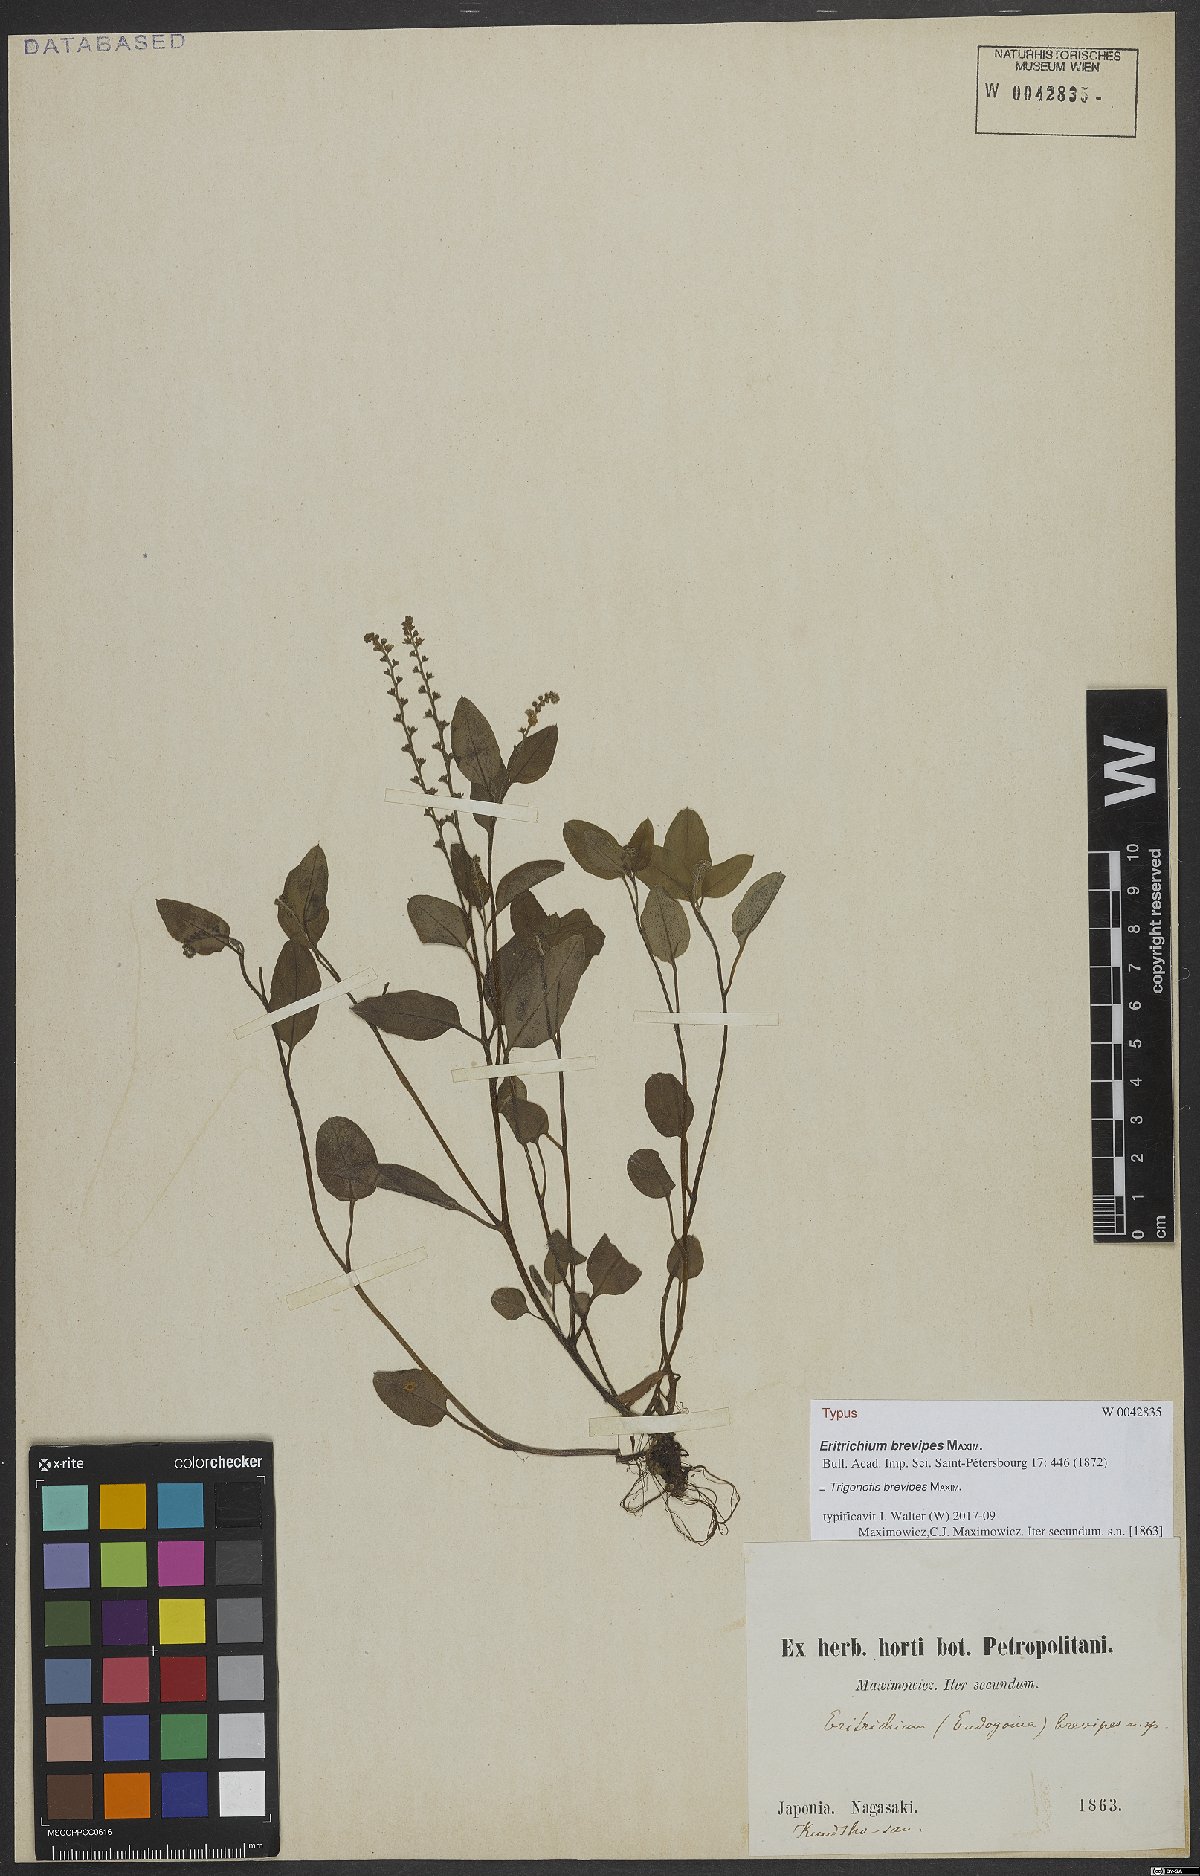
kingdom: Plantae
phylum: Tracheophyta
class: Magnoliopsida
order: Boraginales
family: Boraginaceae
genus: Trigonotis
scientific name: Trigonotis brevipes
